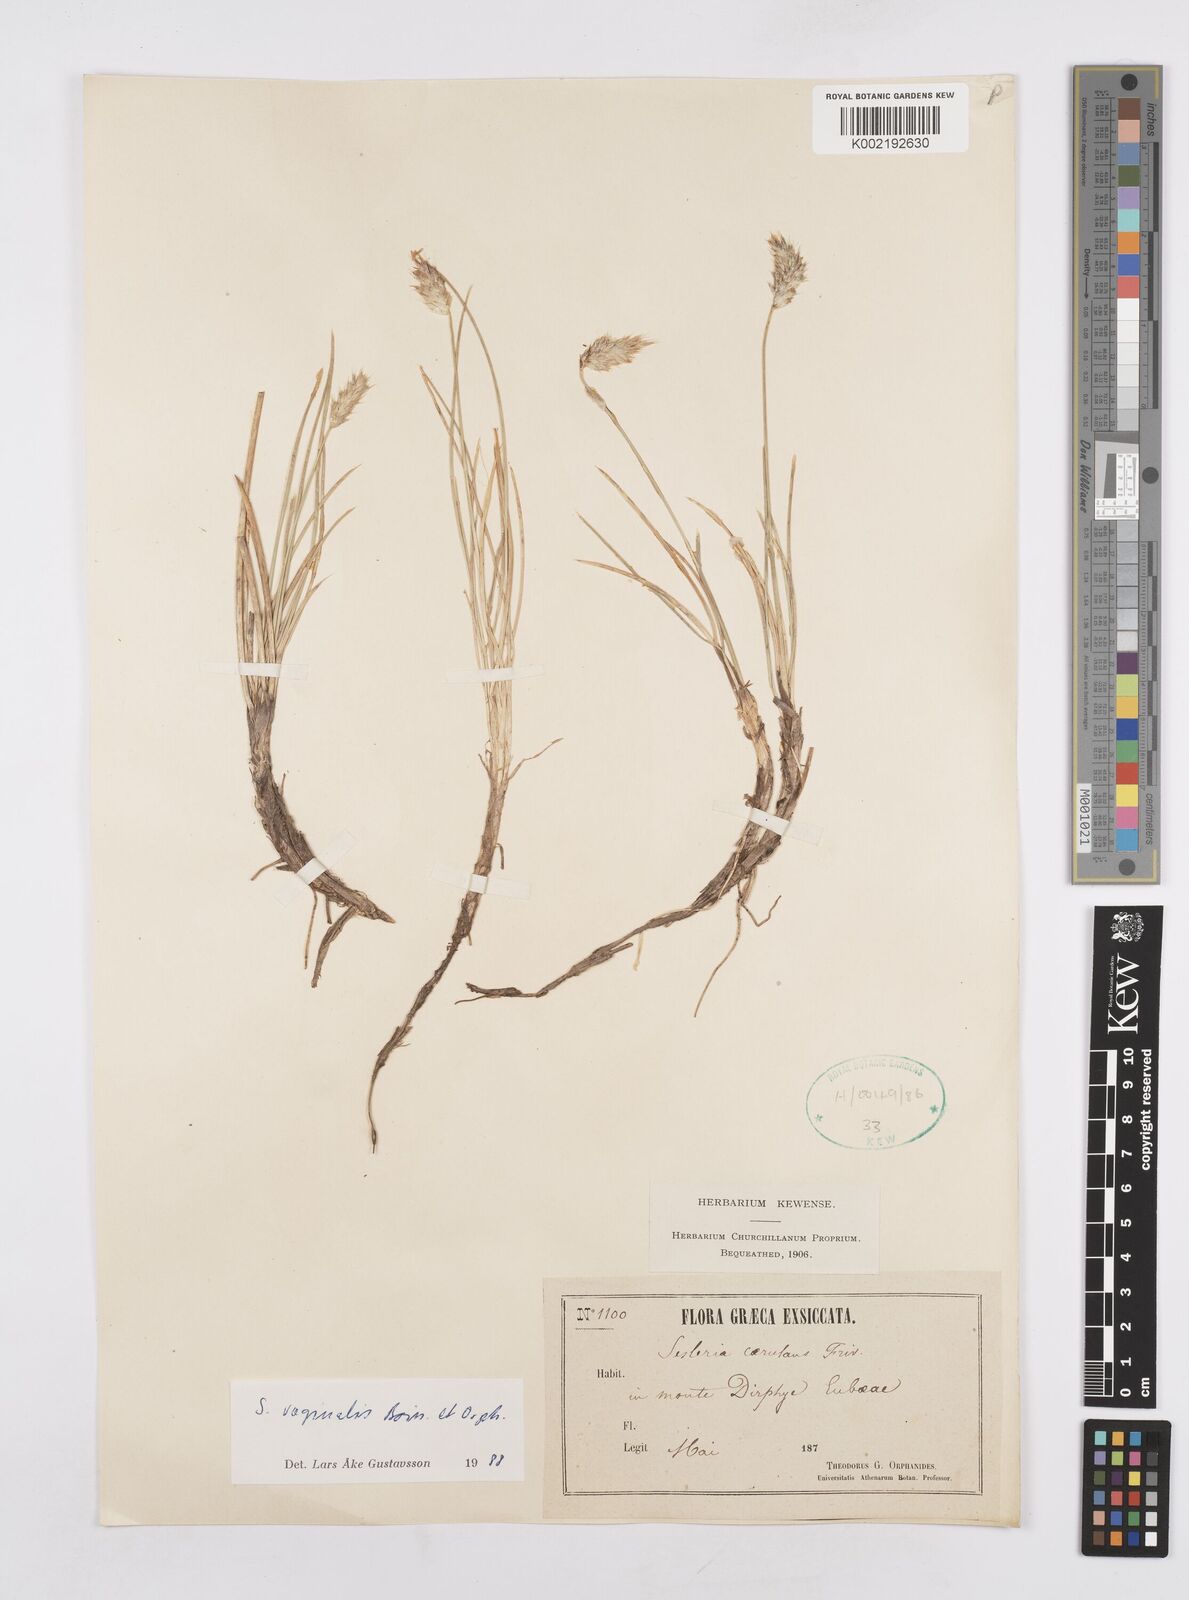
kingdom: Plantae
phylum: Tracheophyta
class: Liliopsida
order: Poales
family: Poaceae
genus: Sesleria
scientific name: Sesleria vaginalis
